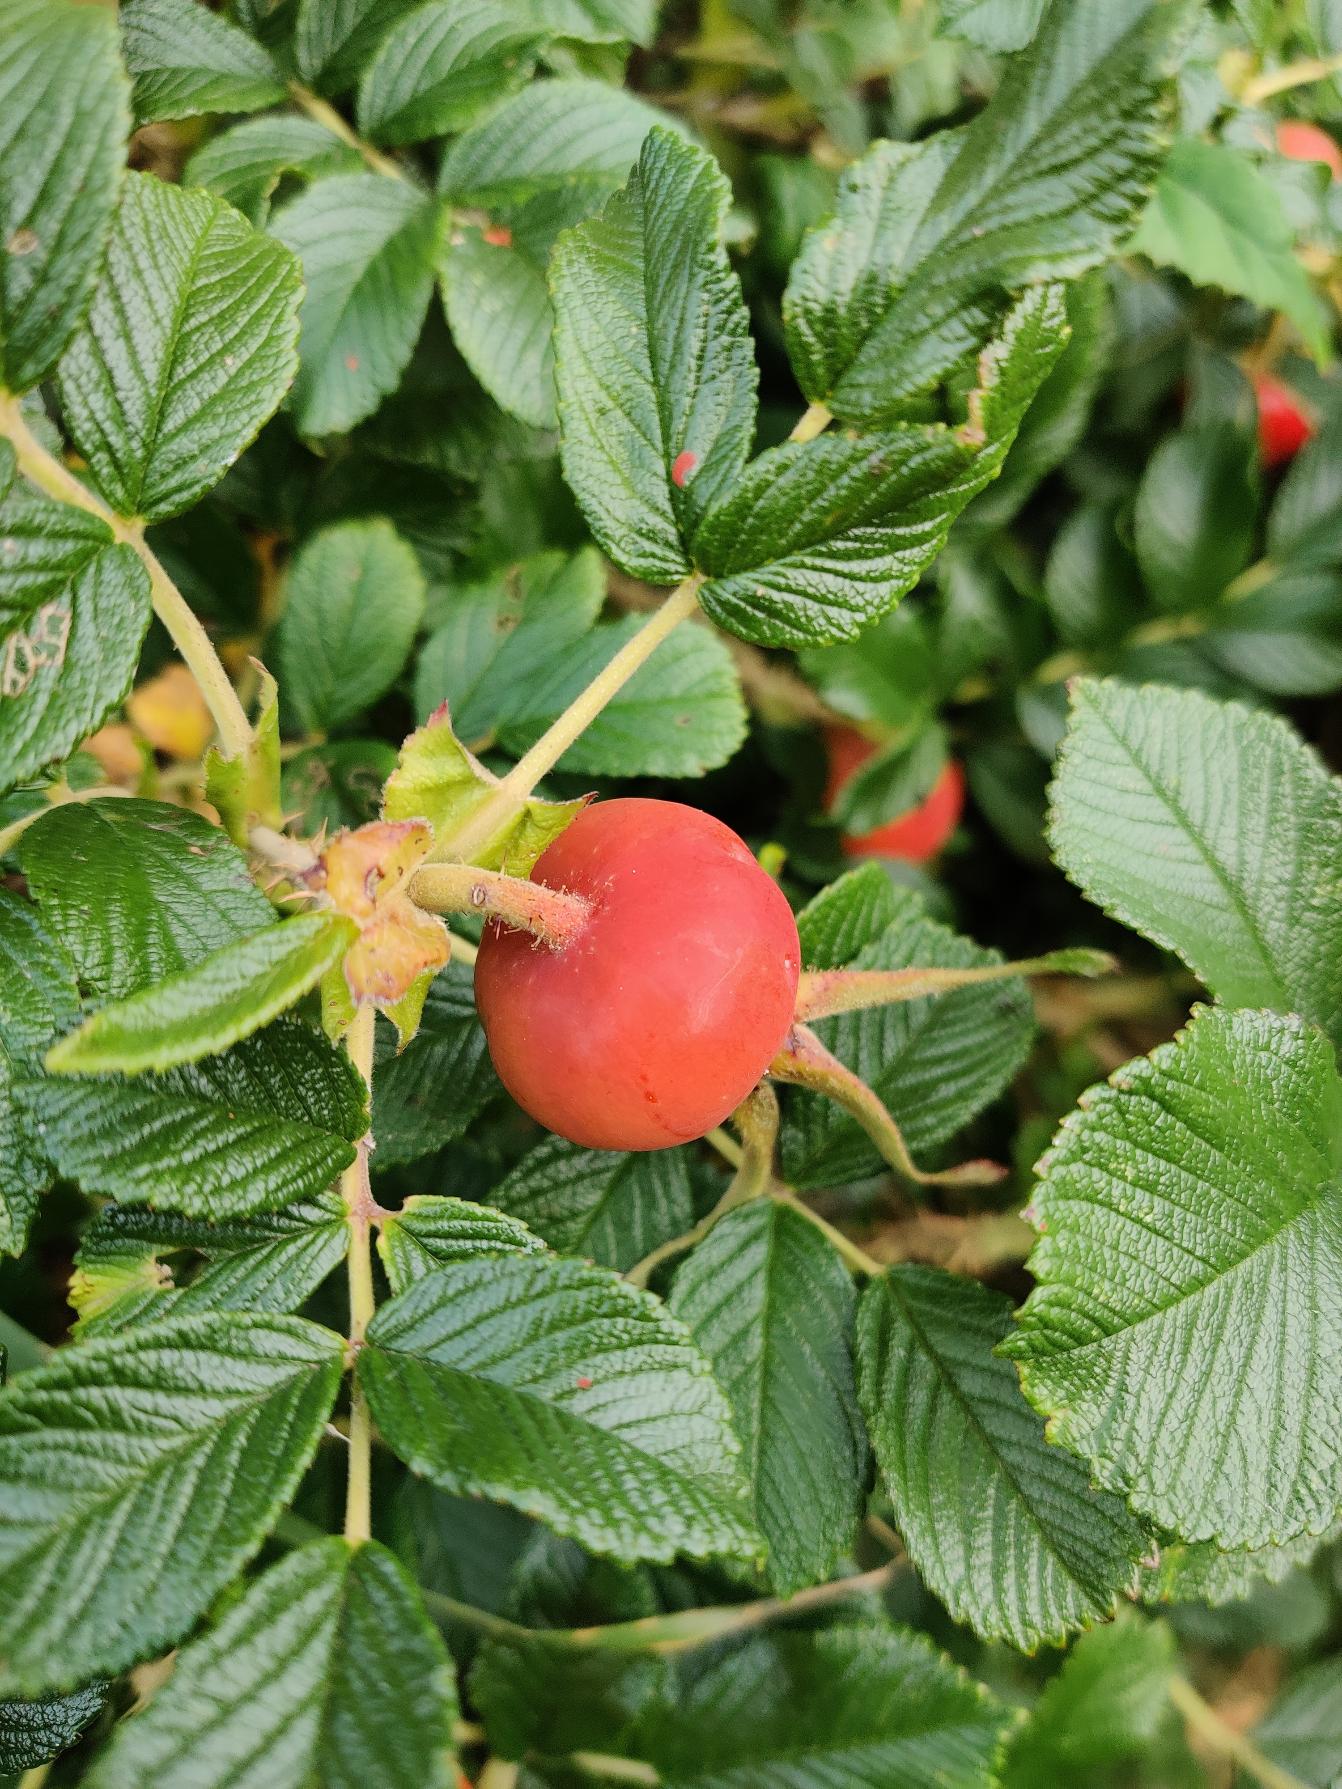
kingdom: Plantae
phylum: Tracheophyta
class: Magnoliopsida
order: Rosales
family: Rosaceae
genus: Rosa
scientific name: Rosa rugosa
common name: Rynket rose
